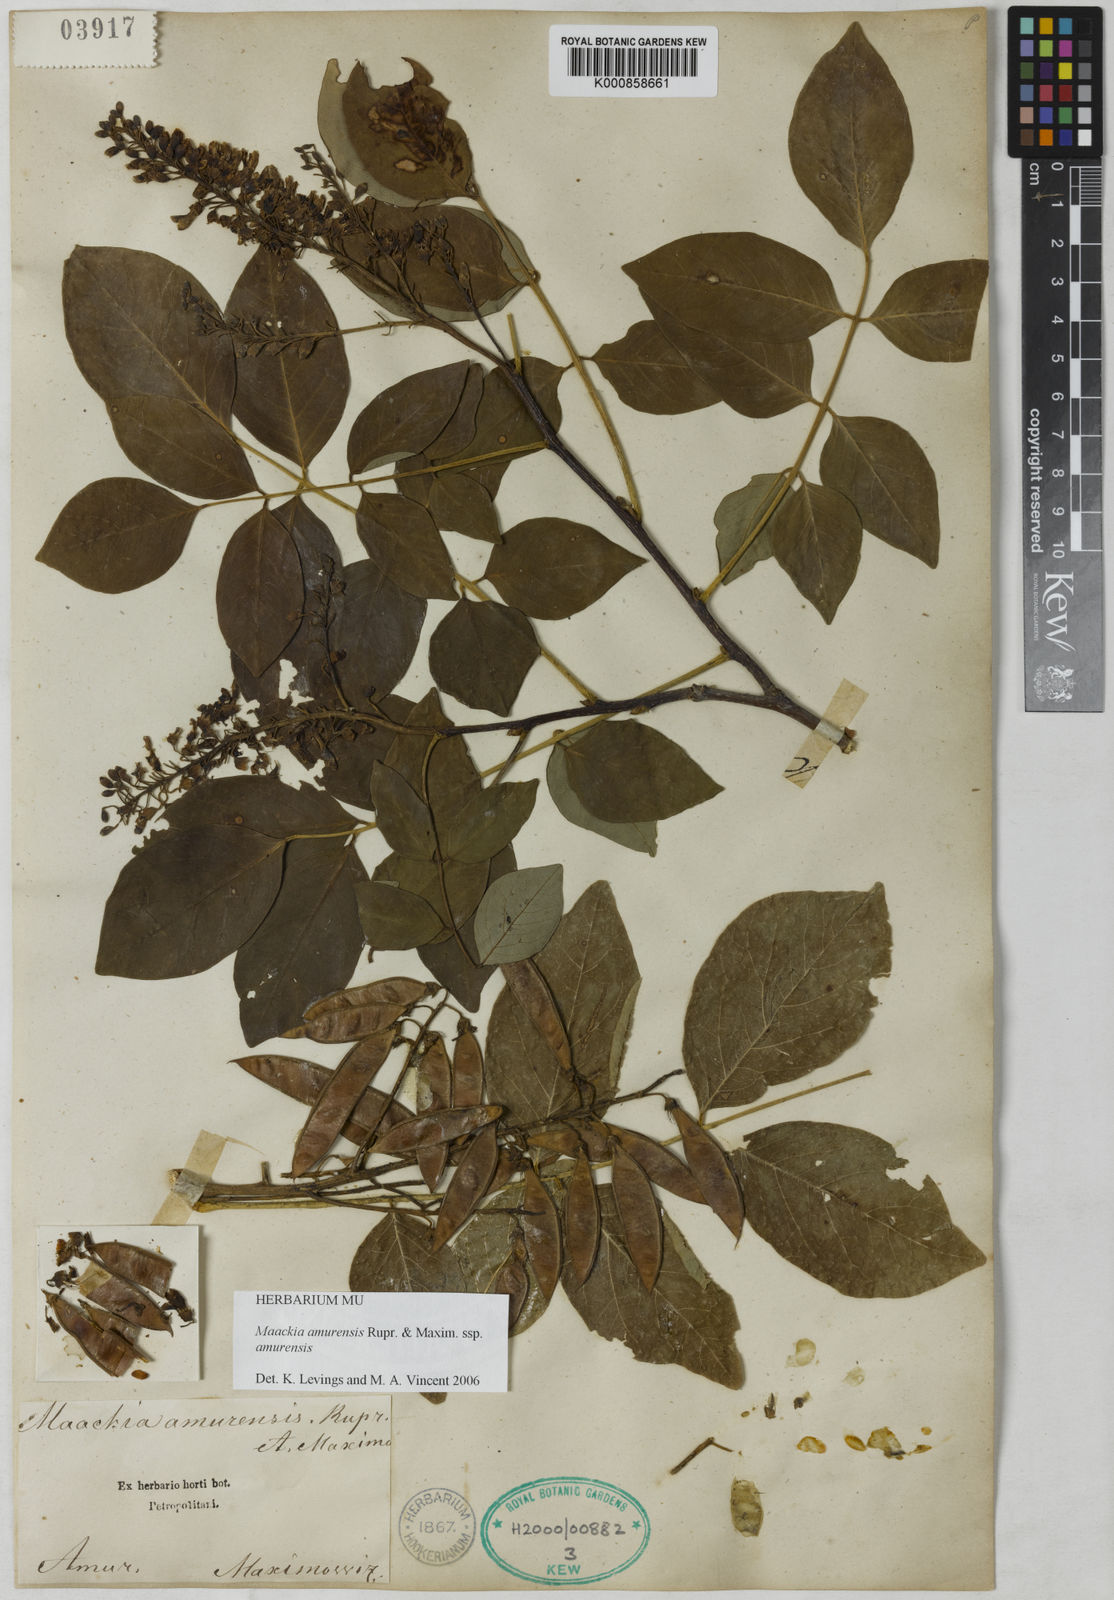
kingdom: Plantae
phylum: Tracheophyta
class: Magnoliopsida
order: Fabales
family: Fabaceae
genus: Maackia
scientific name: Maackia amurensis
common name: Amur maackia
